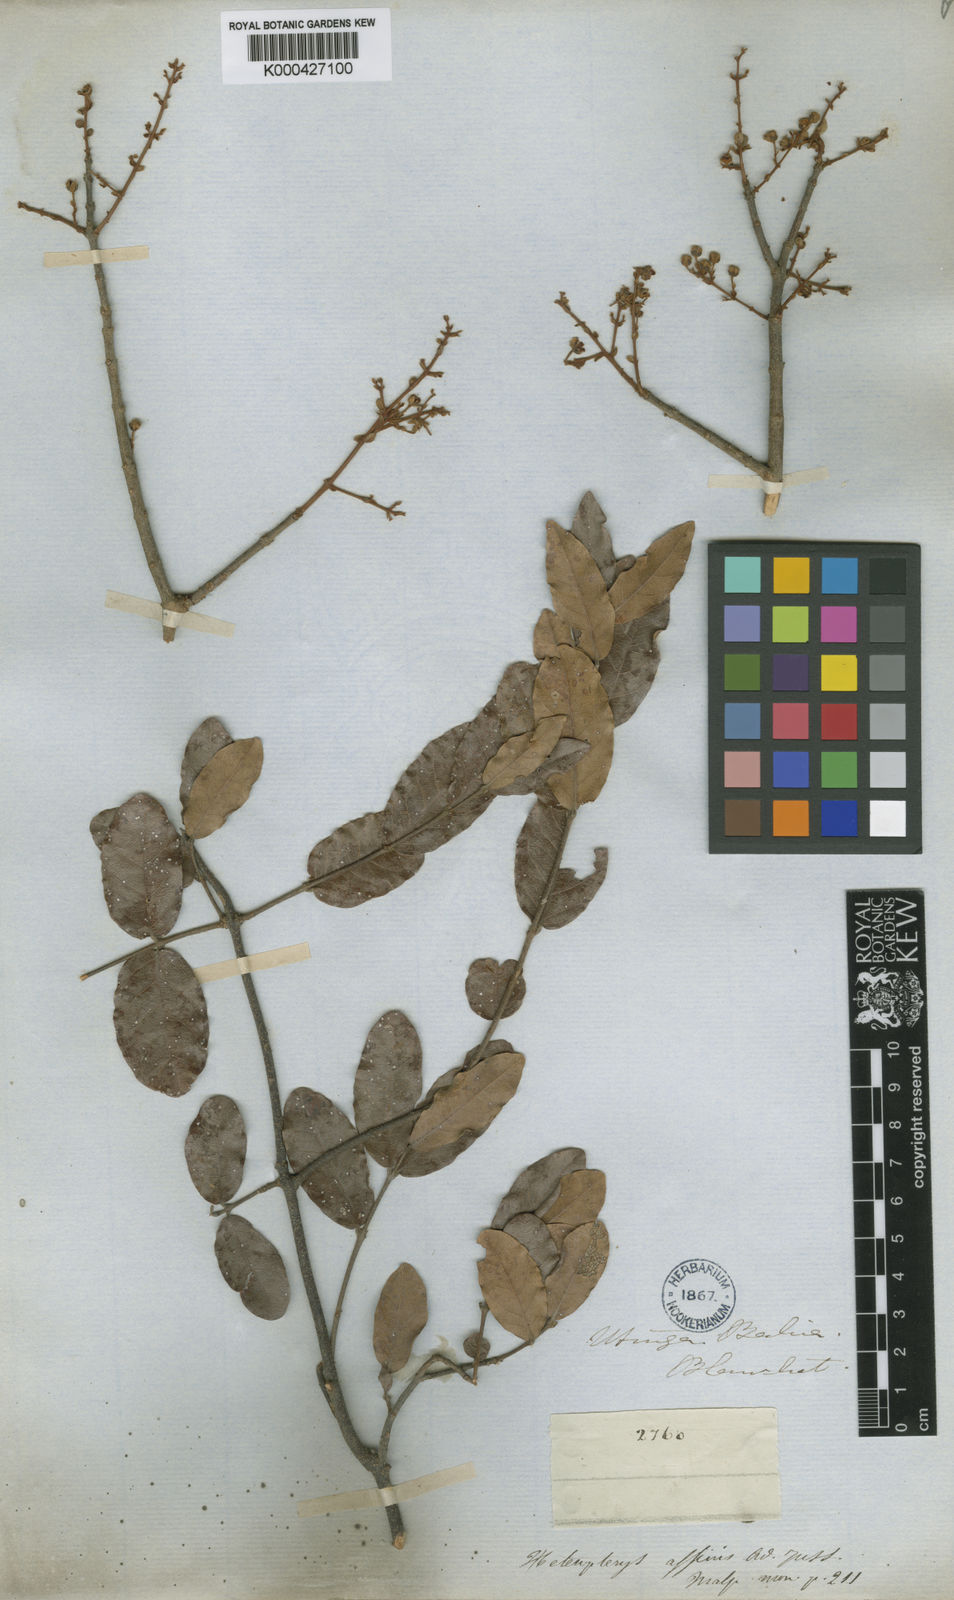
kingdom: Plantae
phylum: Tracheophyta
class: Magnoliopsida
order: Malpighiales
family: Malpighiaceae
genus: Heteropterys
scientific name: Heteropterys escalloniifolia
